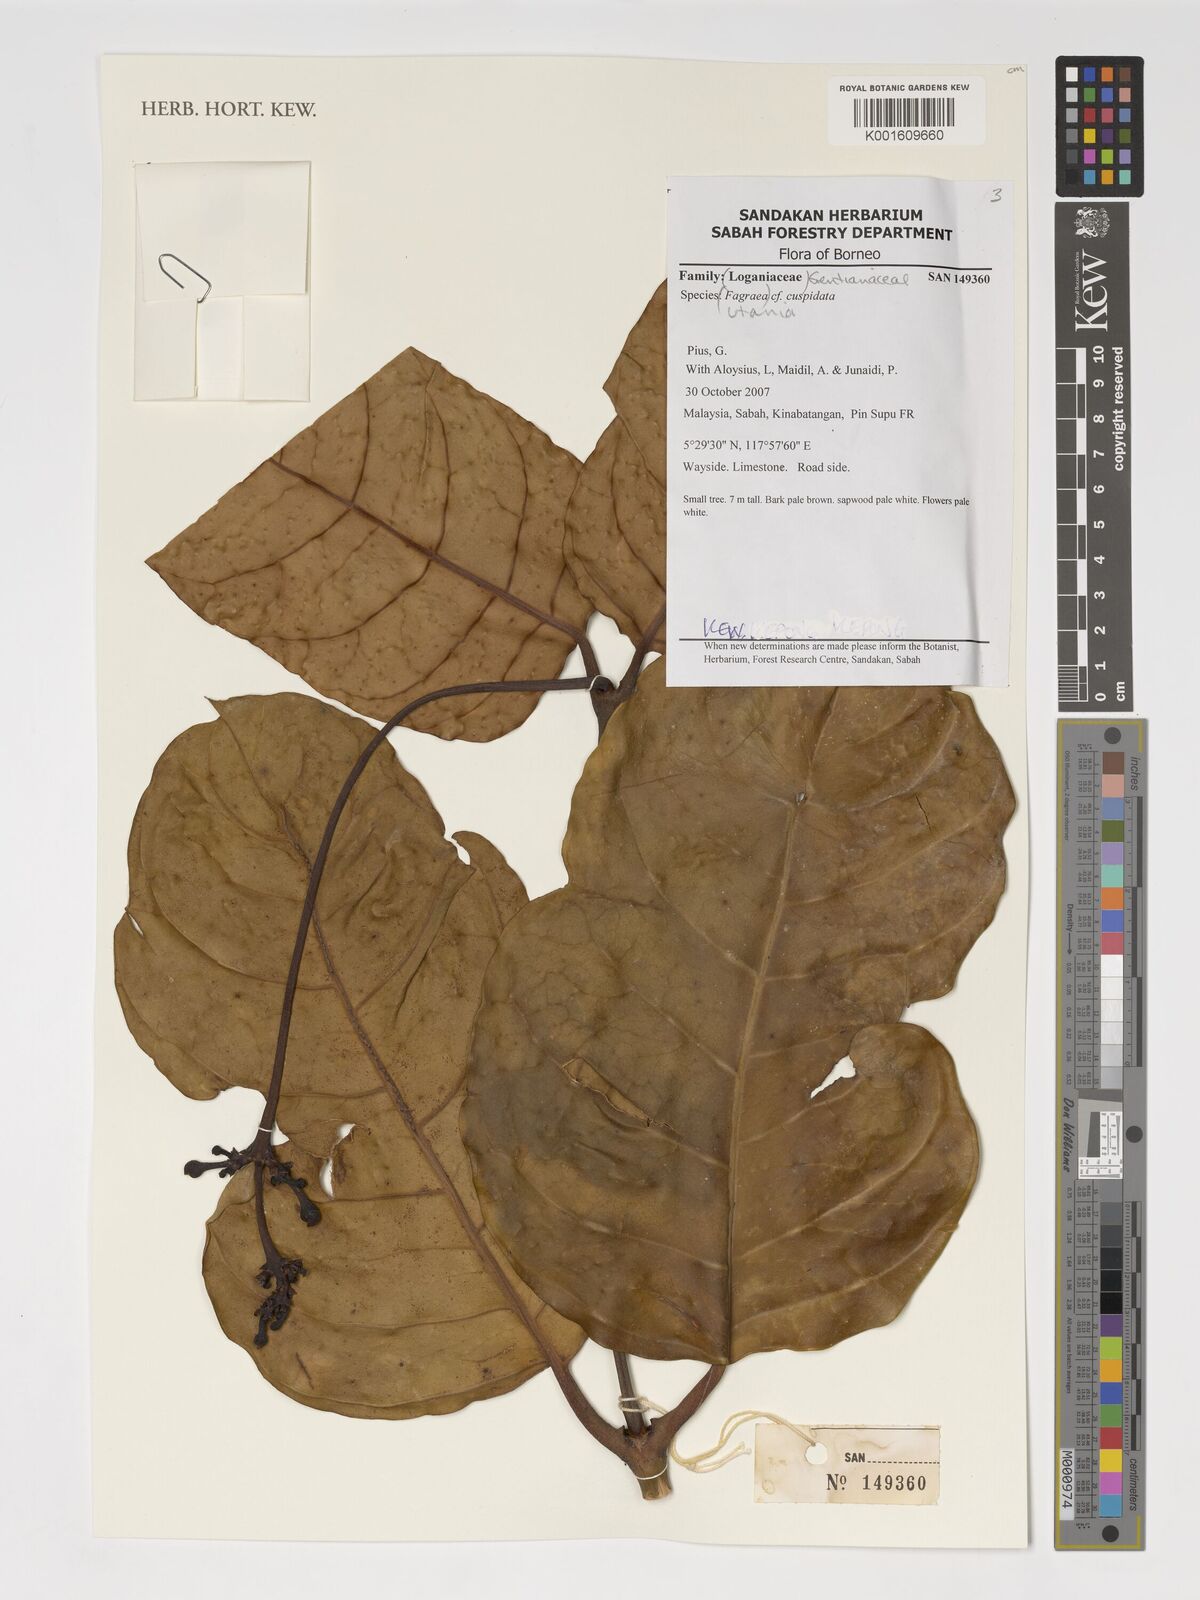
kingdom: Plantae
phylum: Tracheophyta
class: Magnoliopsida
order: Gentianales
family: Gentianaceae
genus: Utania
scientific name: Utania cuspidata
